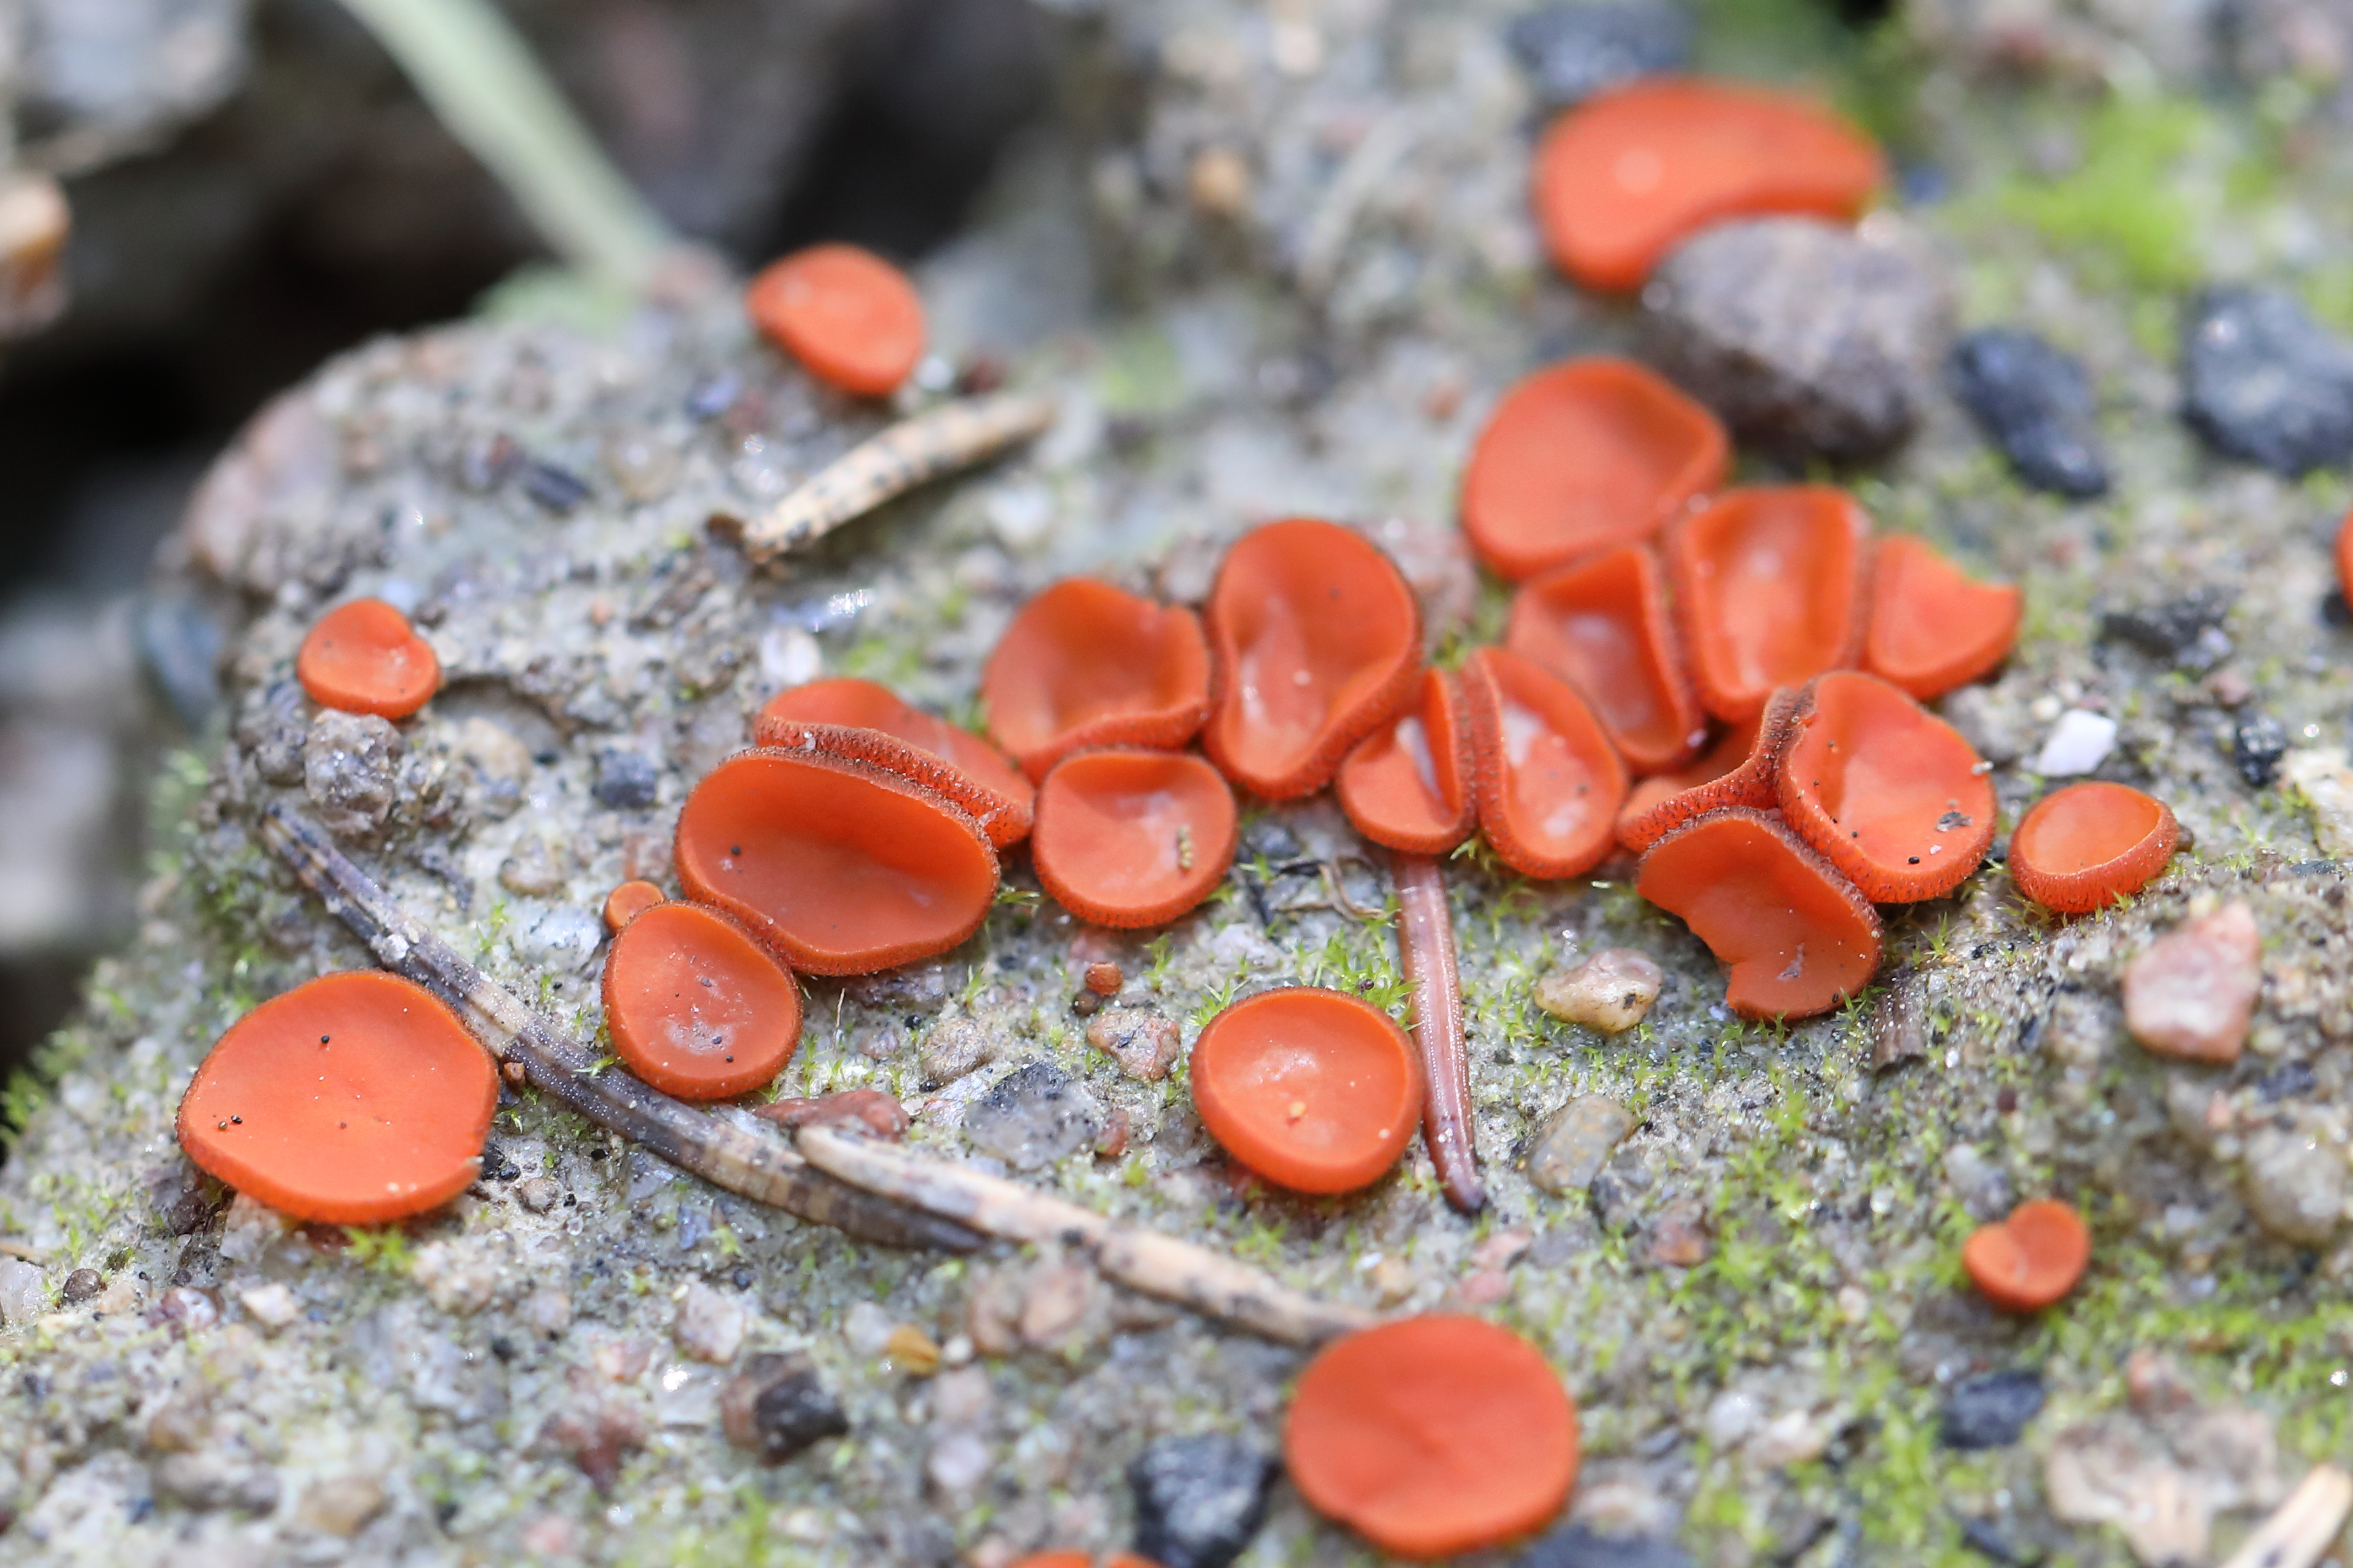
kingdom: Fungi
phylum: Ascomycota
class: Pezizomycetes
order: Pezizales
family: Pyronemataceae
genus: Melastiza
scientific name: Melastiza chateri
